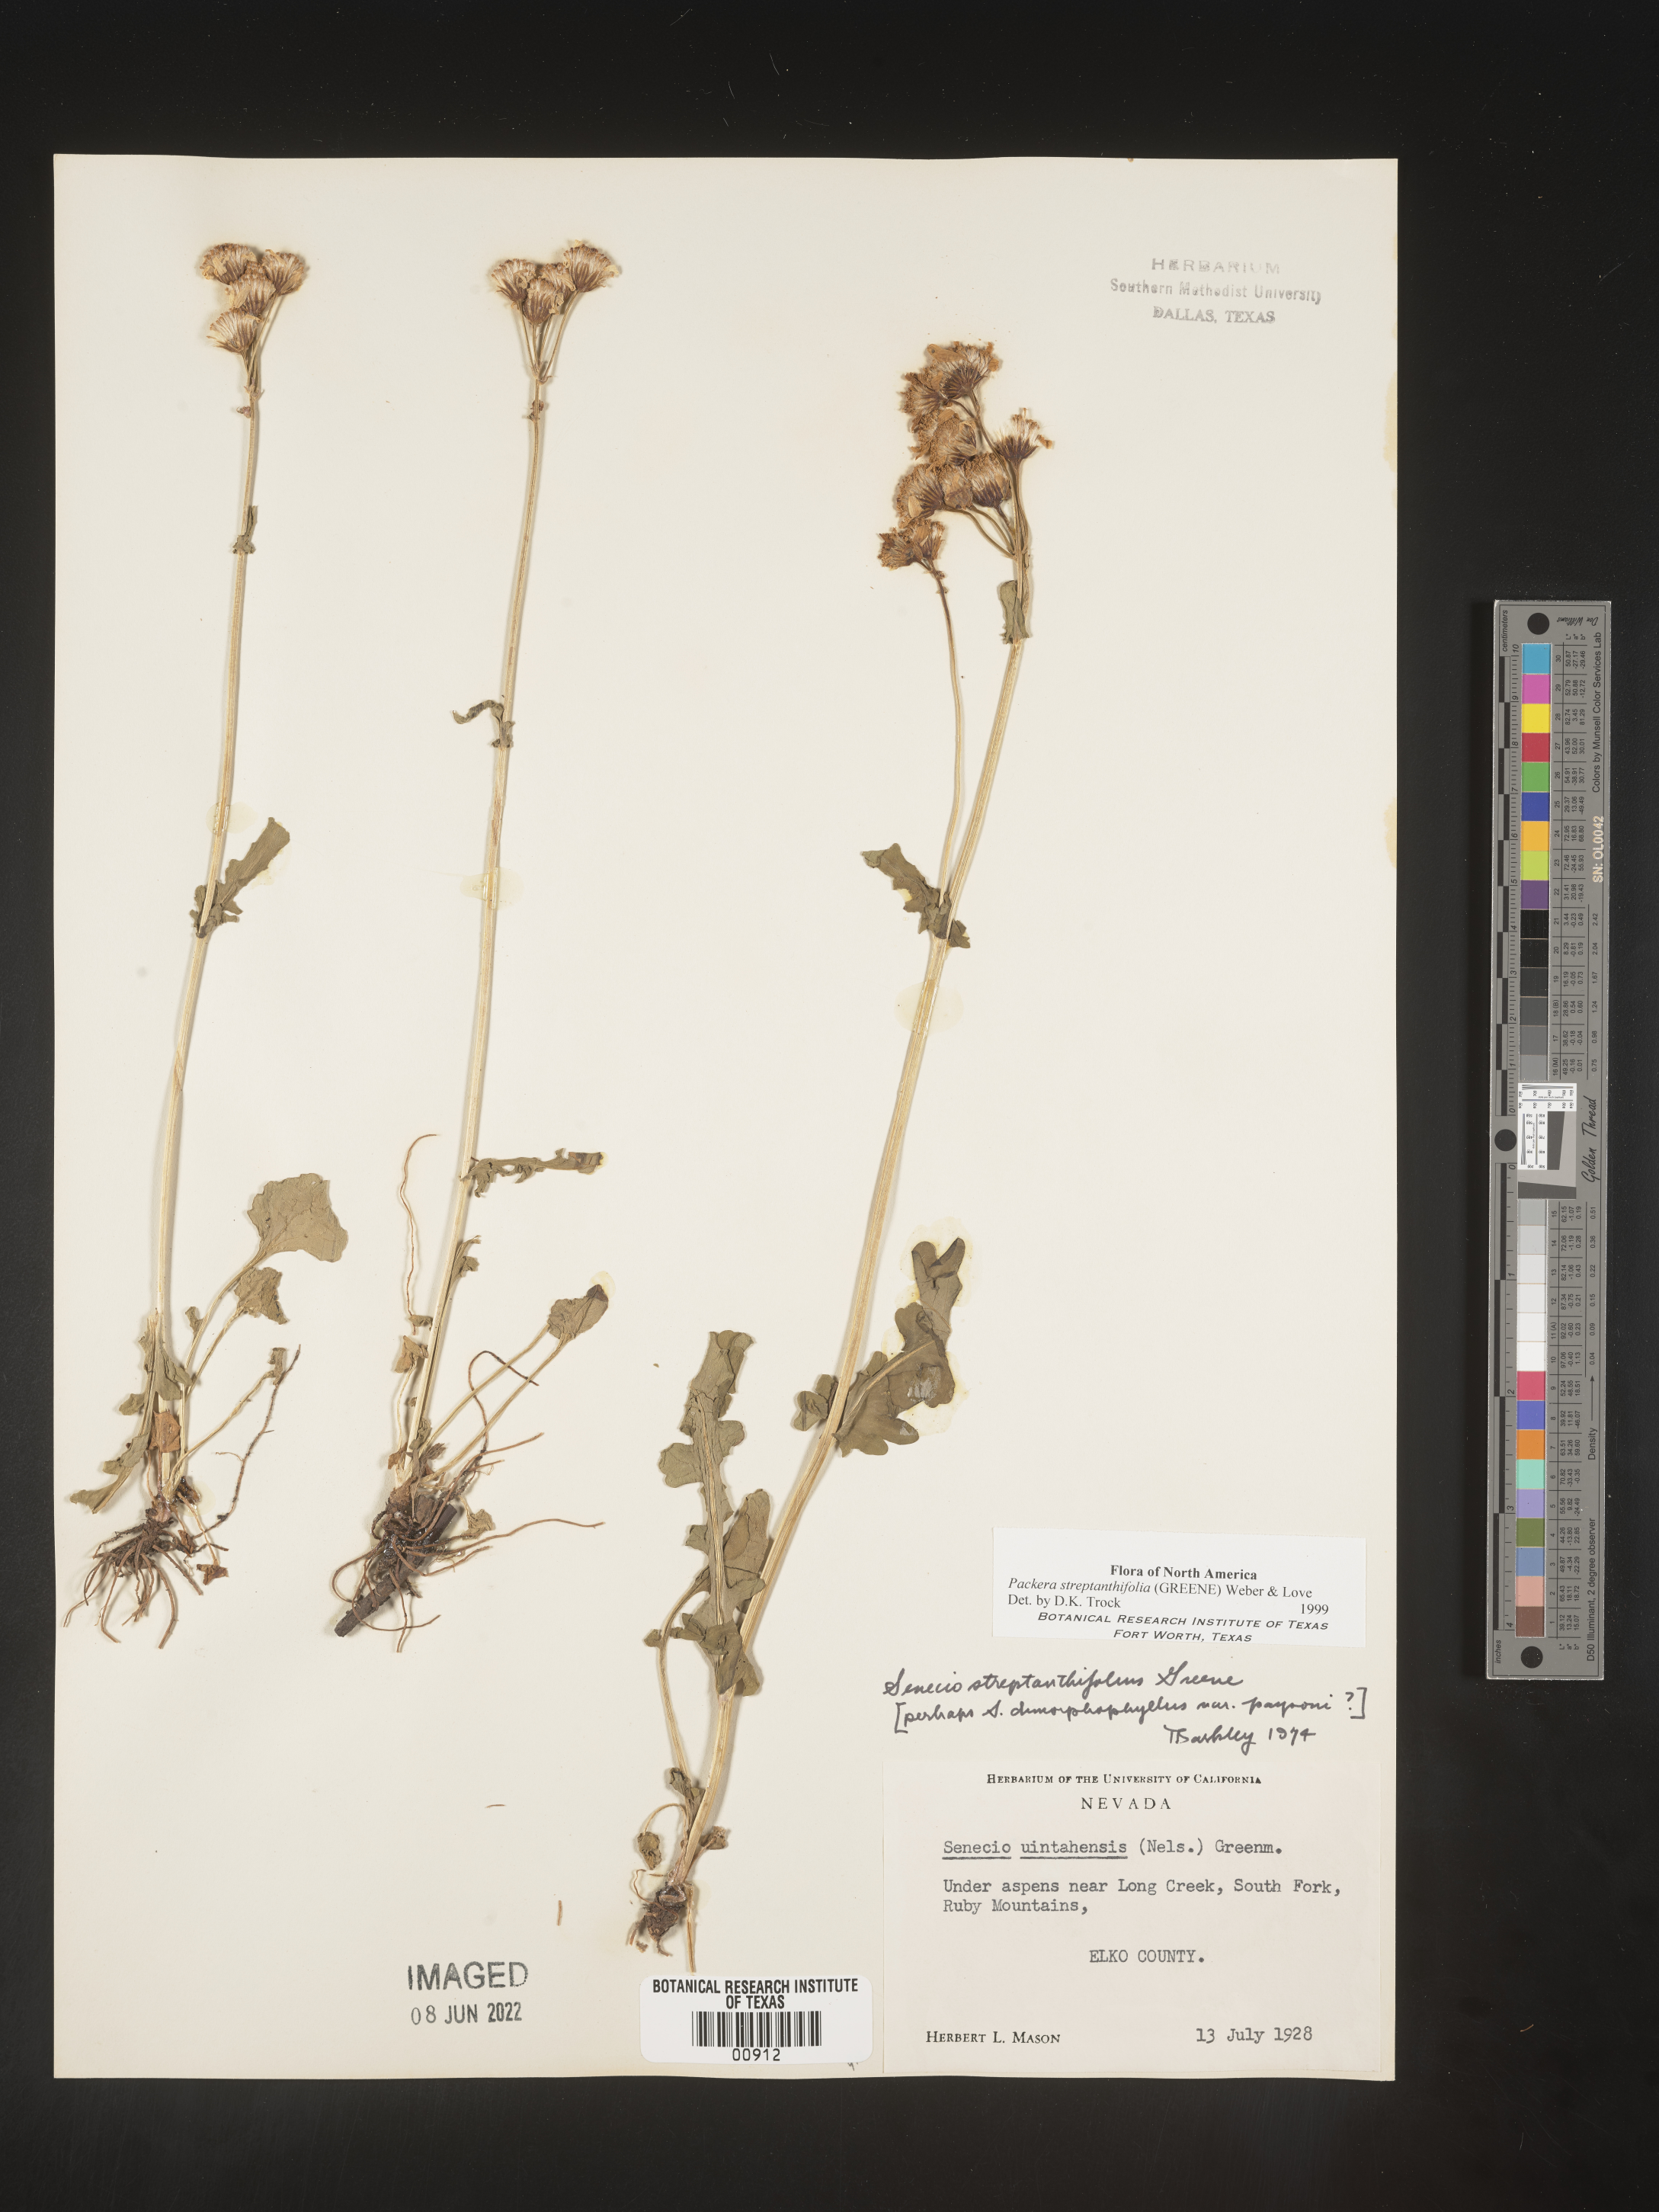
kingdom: Plantae
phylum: Tracheophyta
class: Magnoliopsida
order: Asterales
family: Asteraceae
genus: Packera
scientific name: Packera streptanthifolia
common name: Rocky mountain butterweed
